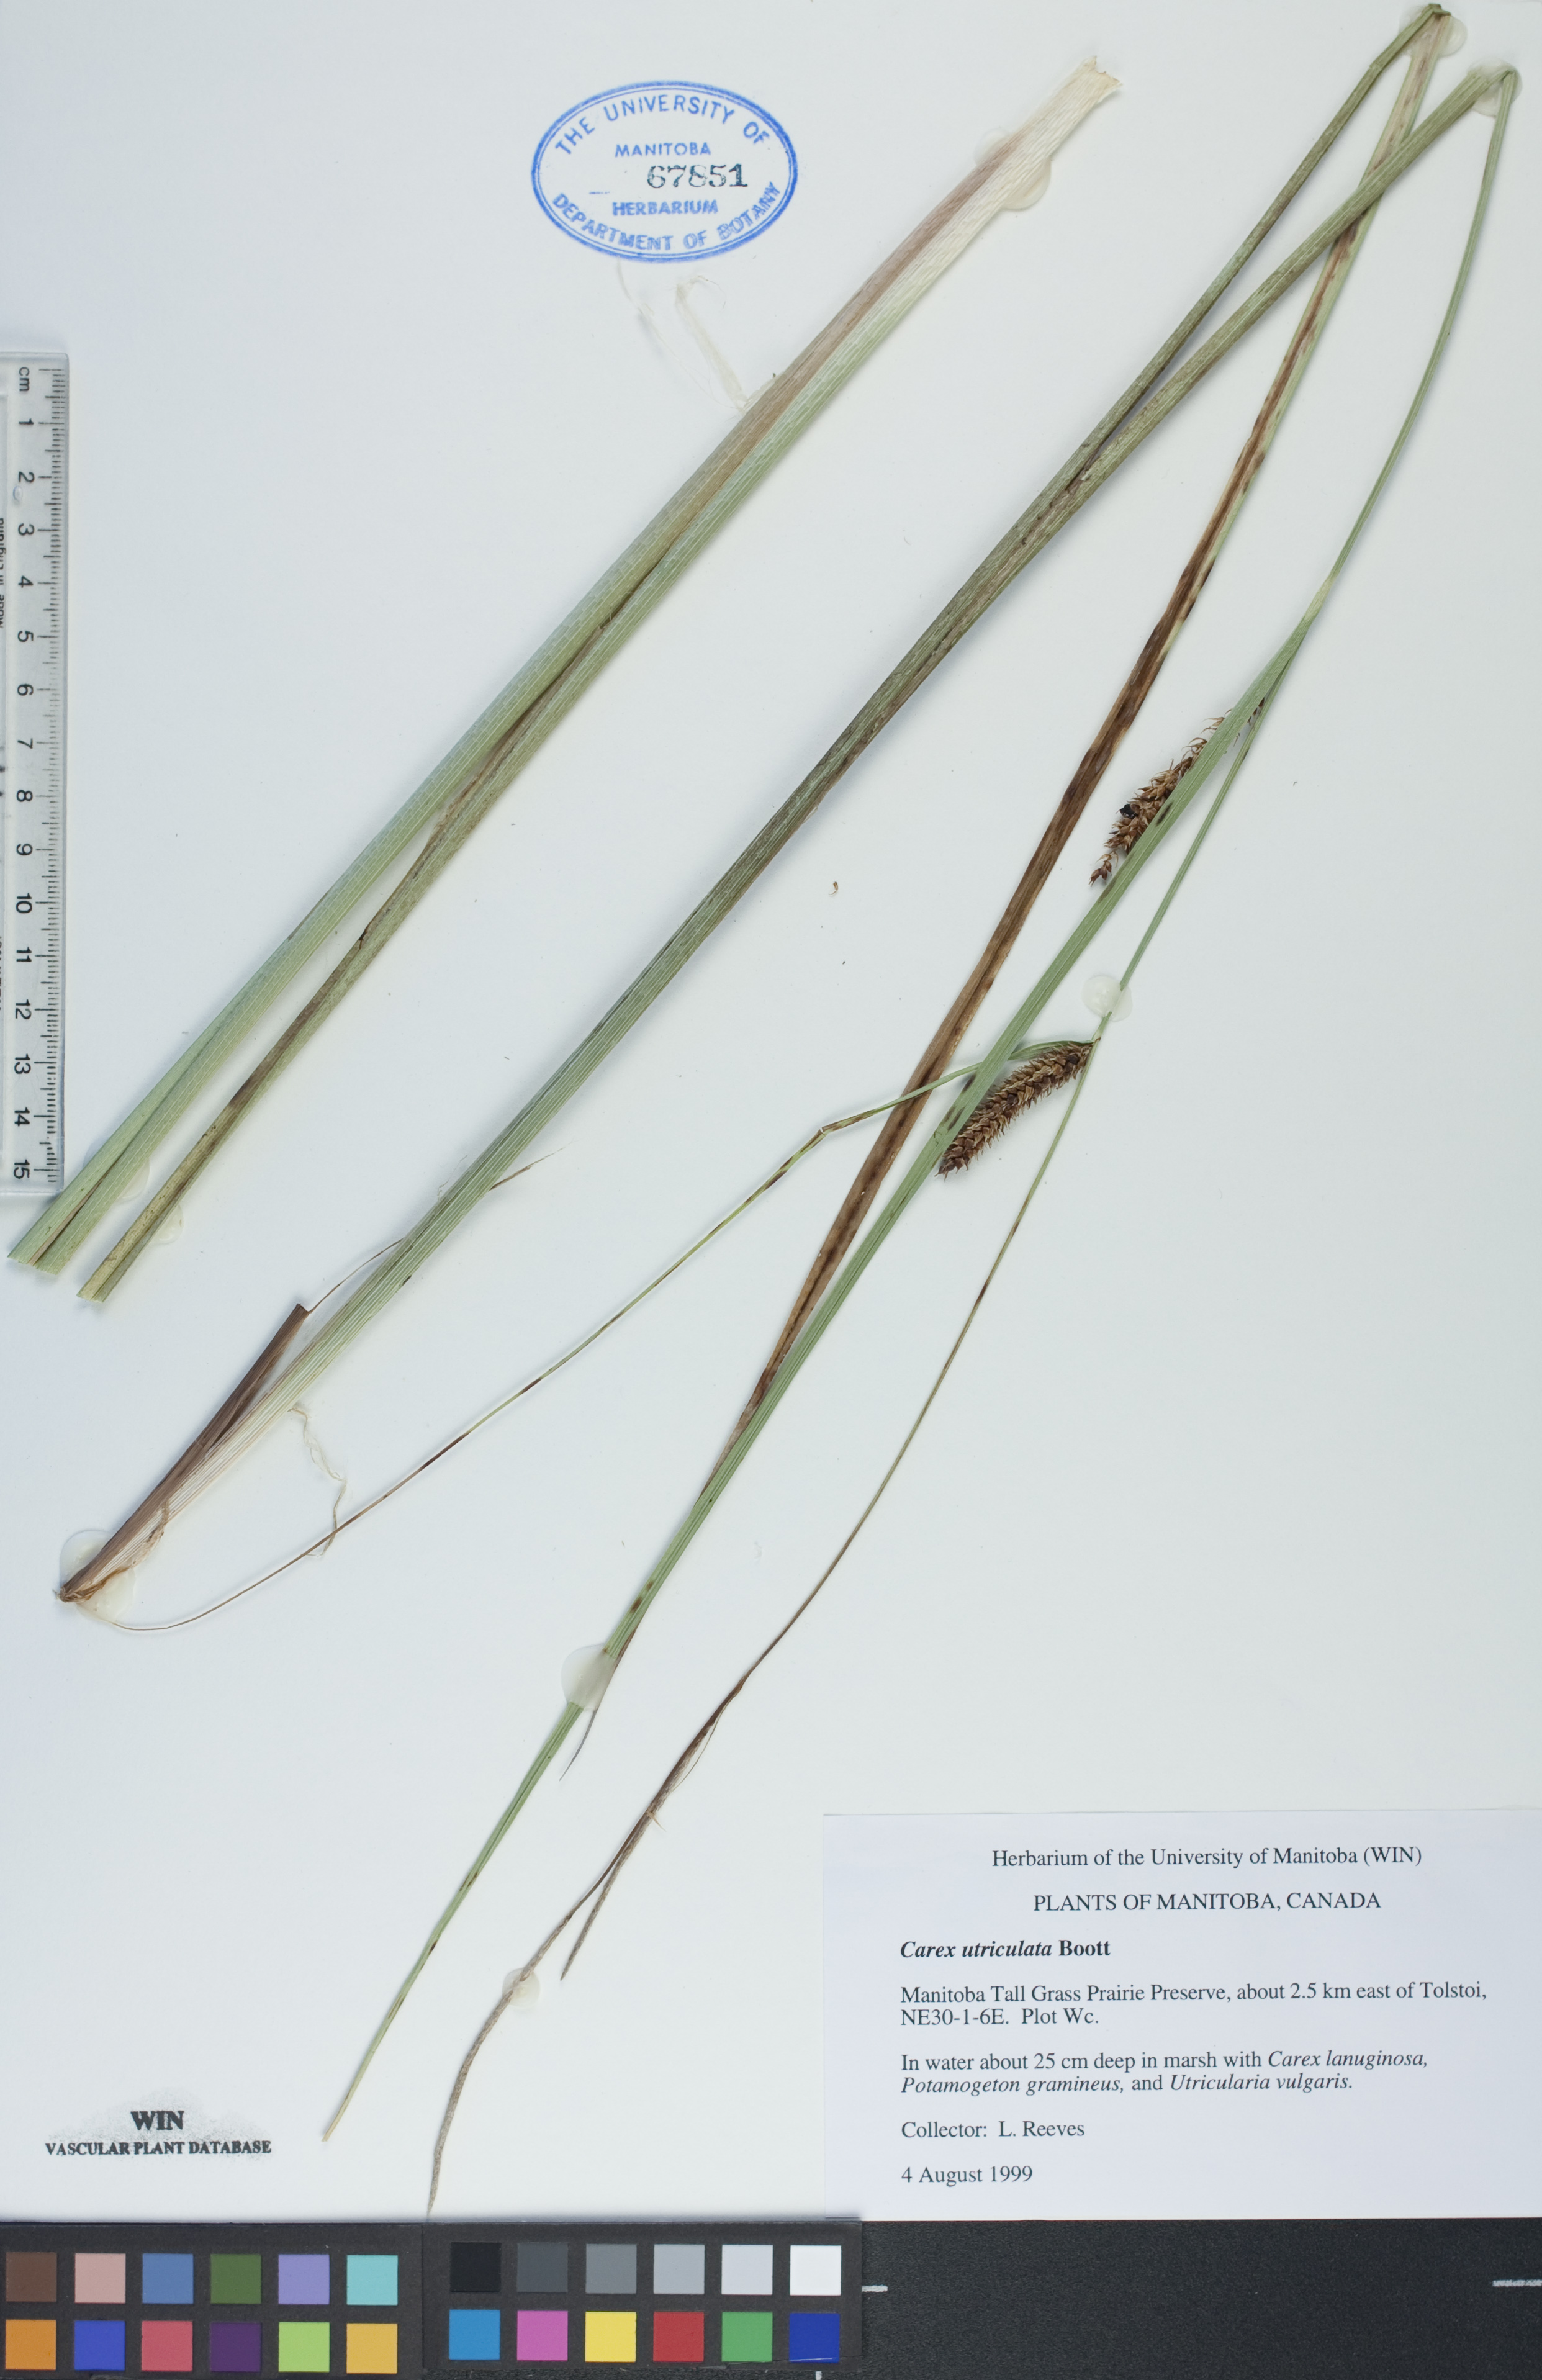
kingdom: Plantae
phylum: Tracheophyta
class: Liliopsida
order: Poales
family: Cyperaceae
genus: Carex
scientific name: Carex utriculata
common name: Beaked sedge
